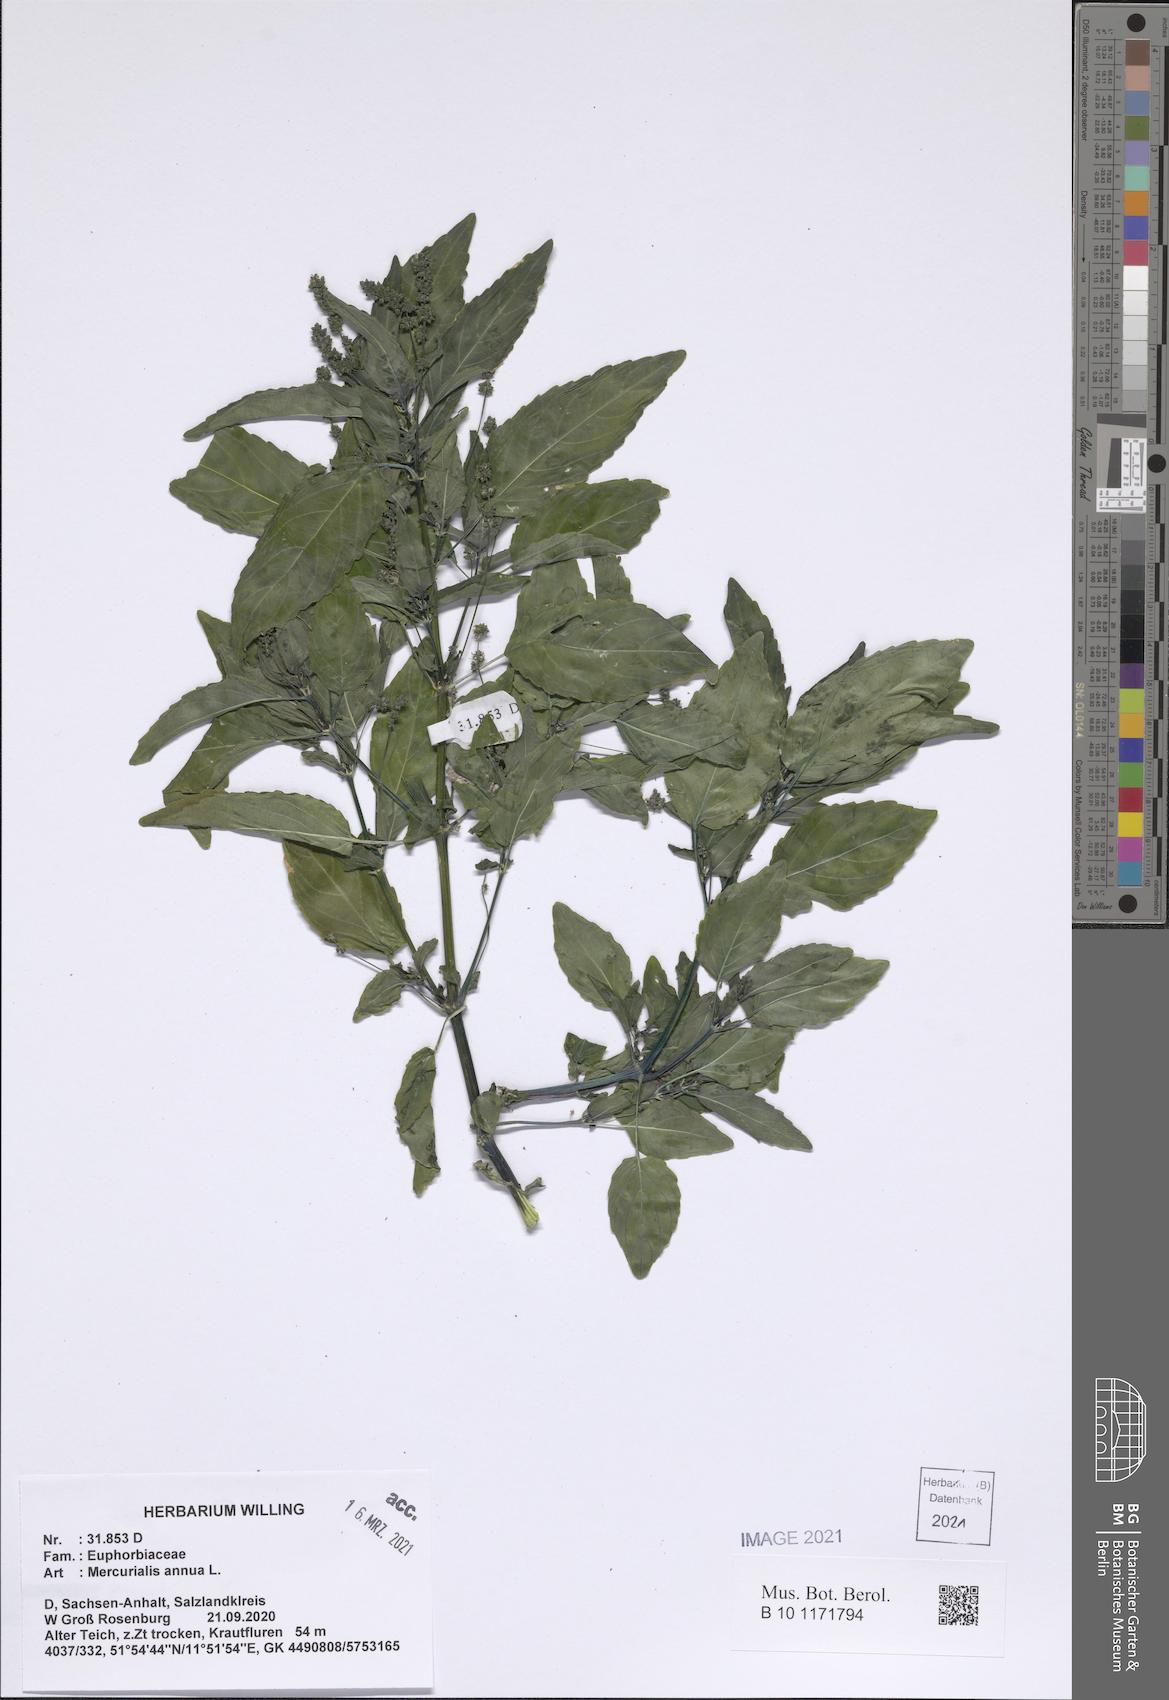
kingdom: Plantae
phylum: Tracheophyta
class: Magnoliopsida
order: Malpighiales
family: Euphorbiaceae
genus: Mercurialis
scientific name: Mercurialis annua
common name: Annual mercury
